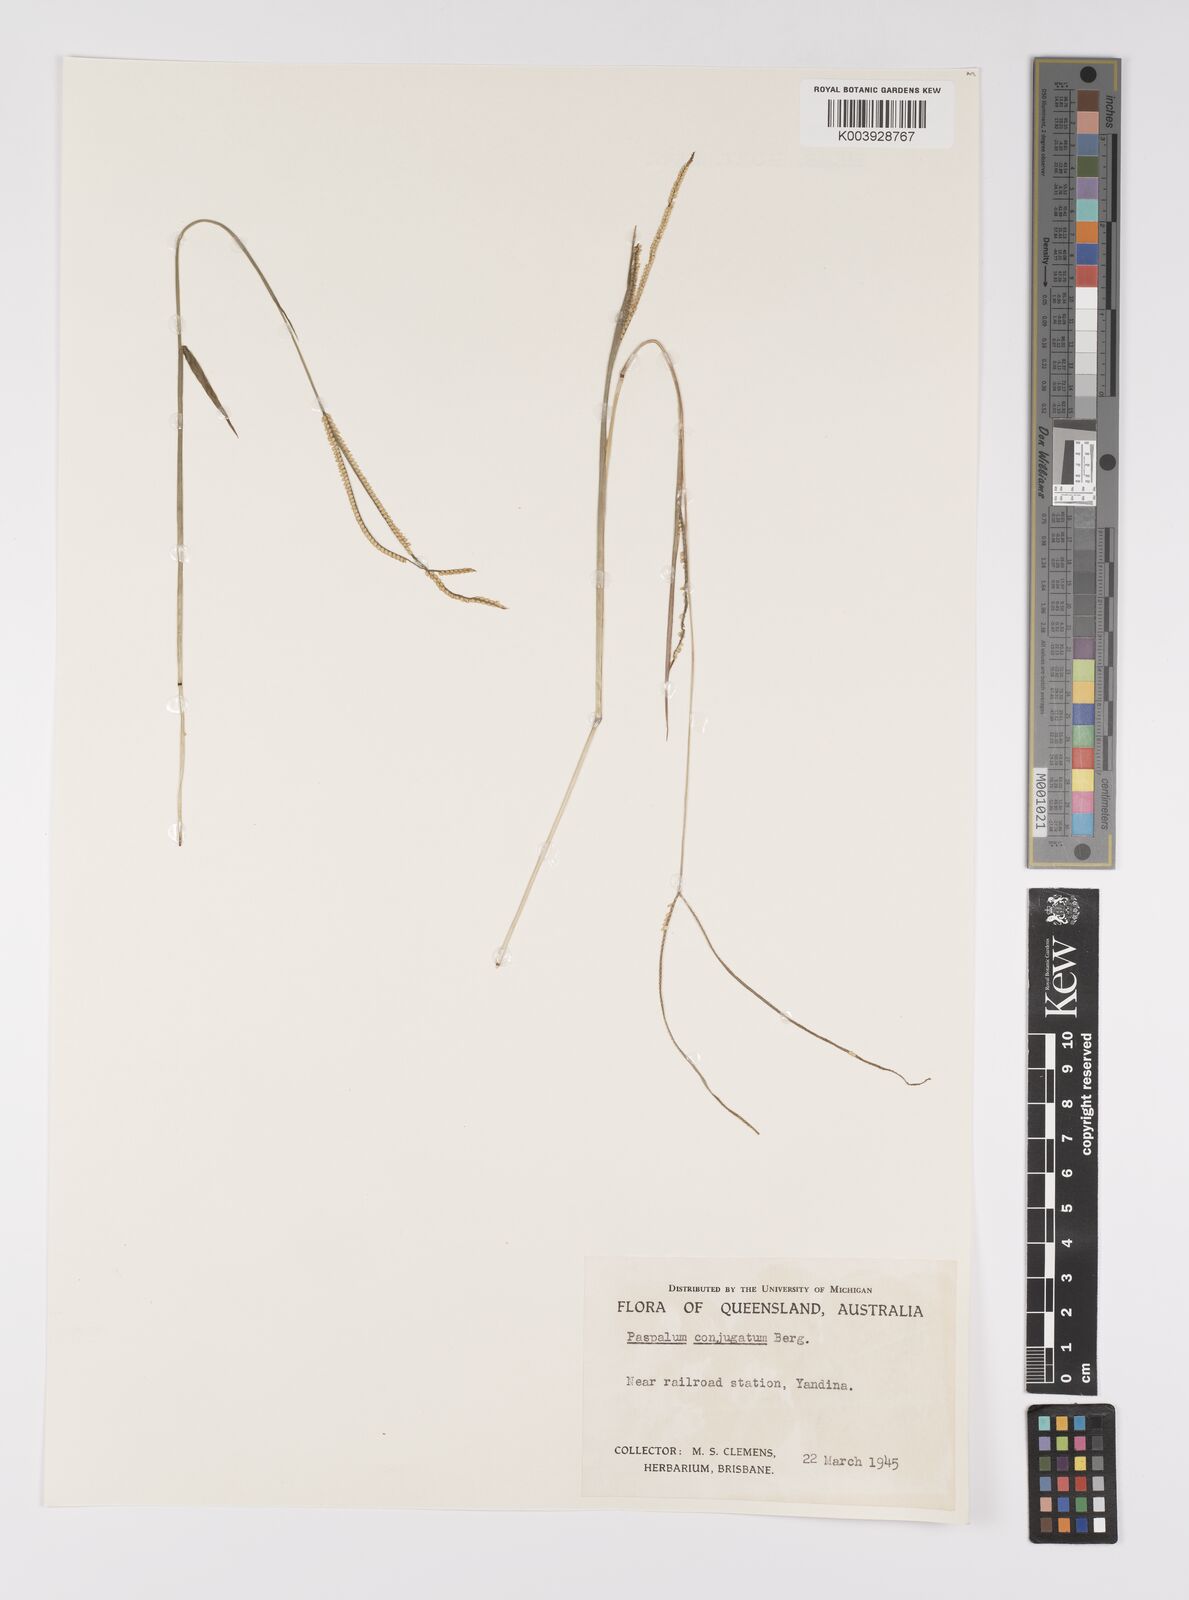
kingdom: Plantae
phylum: Tracheophyta
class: Liliopsida
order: Poales
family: Poaceae
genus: Paspalum
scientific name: Paspalum conjugatum
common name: Hilograss
